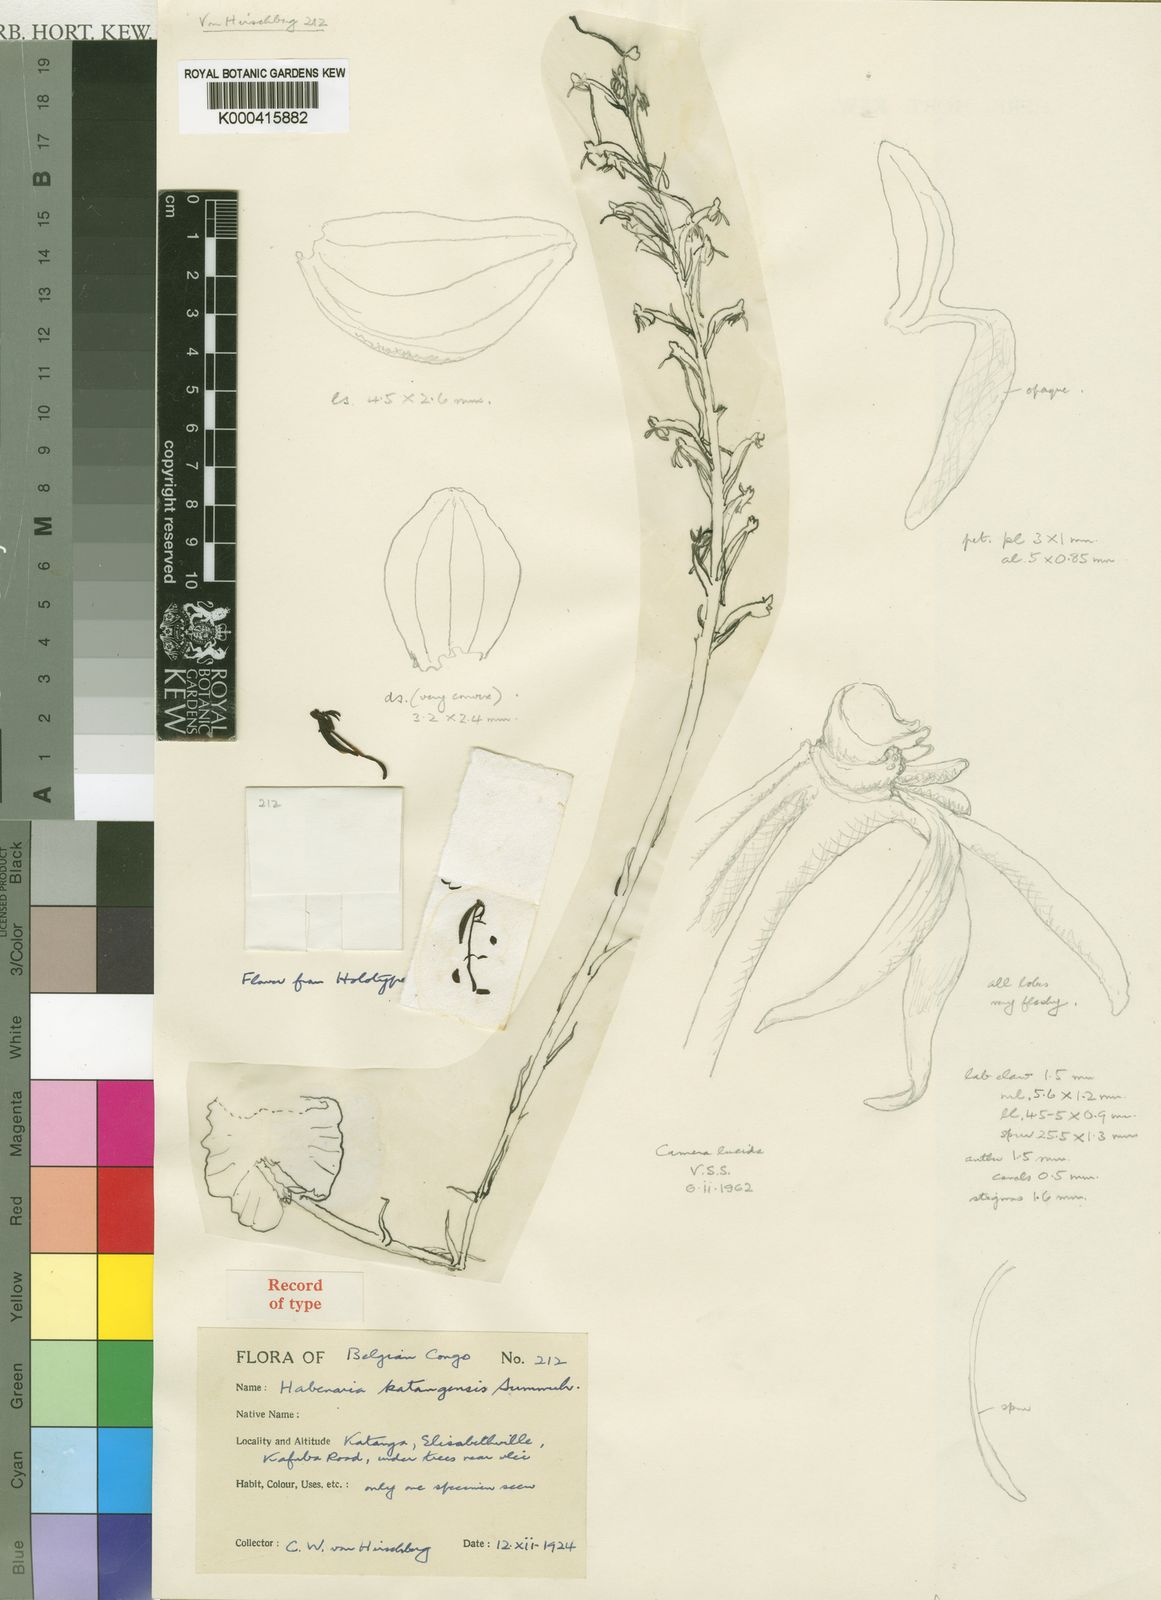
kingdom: Plantae
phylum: Tracheophyta
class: Liliopsida
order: Asparagales
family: Orchidaceae
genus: Habenaria
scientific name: Habenaria katangensis
